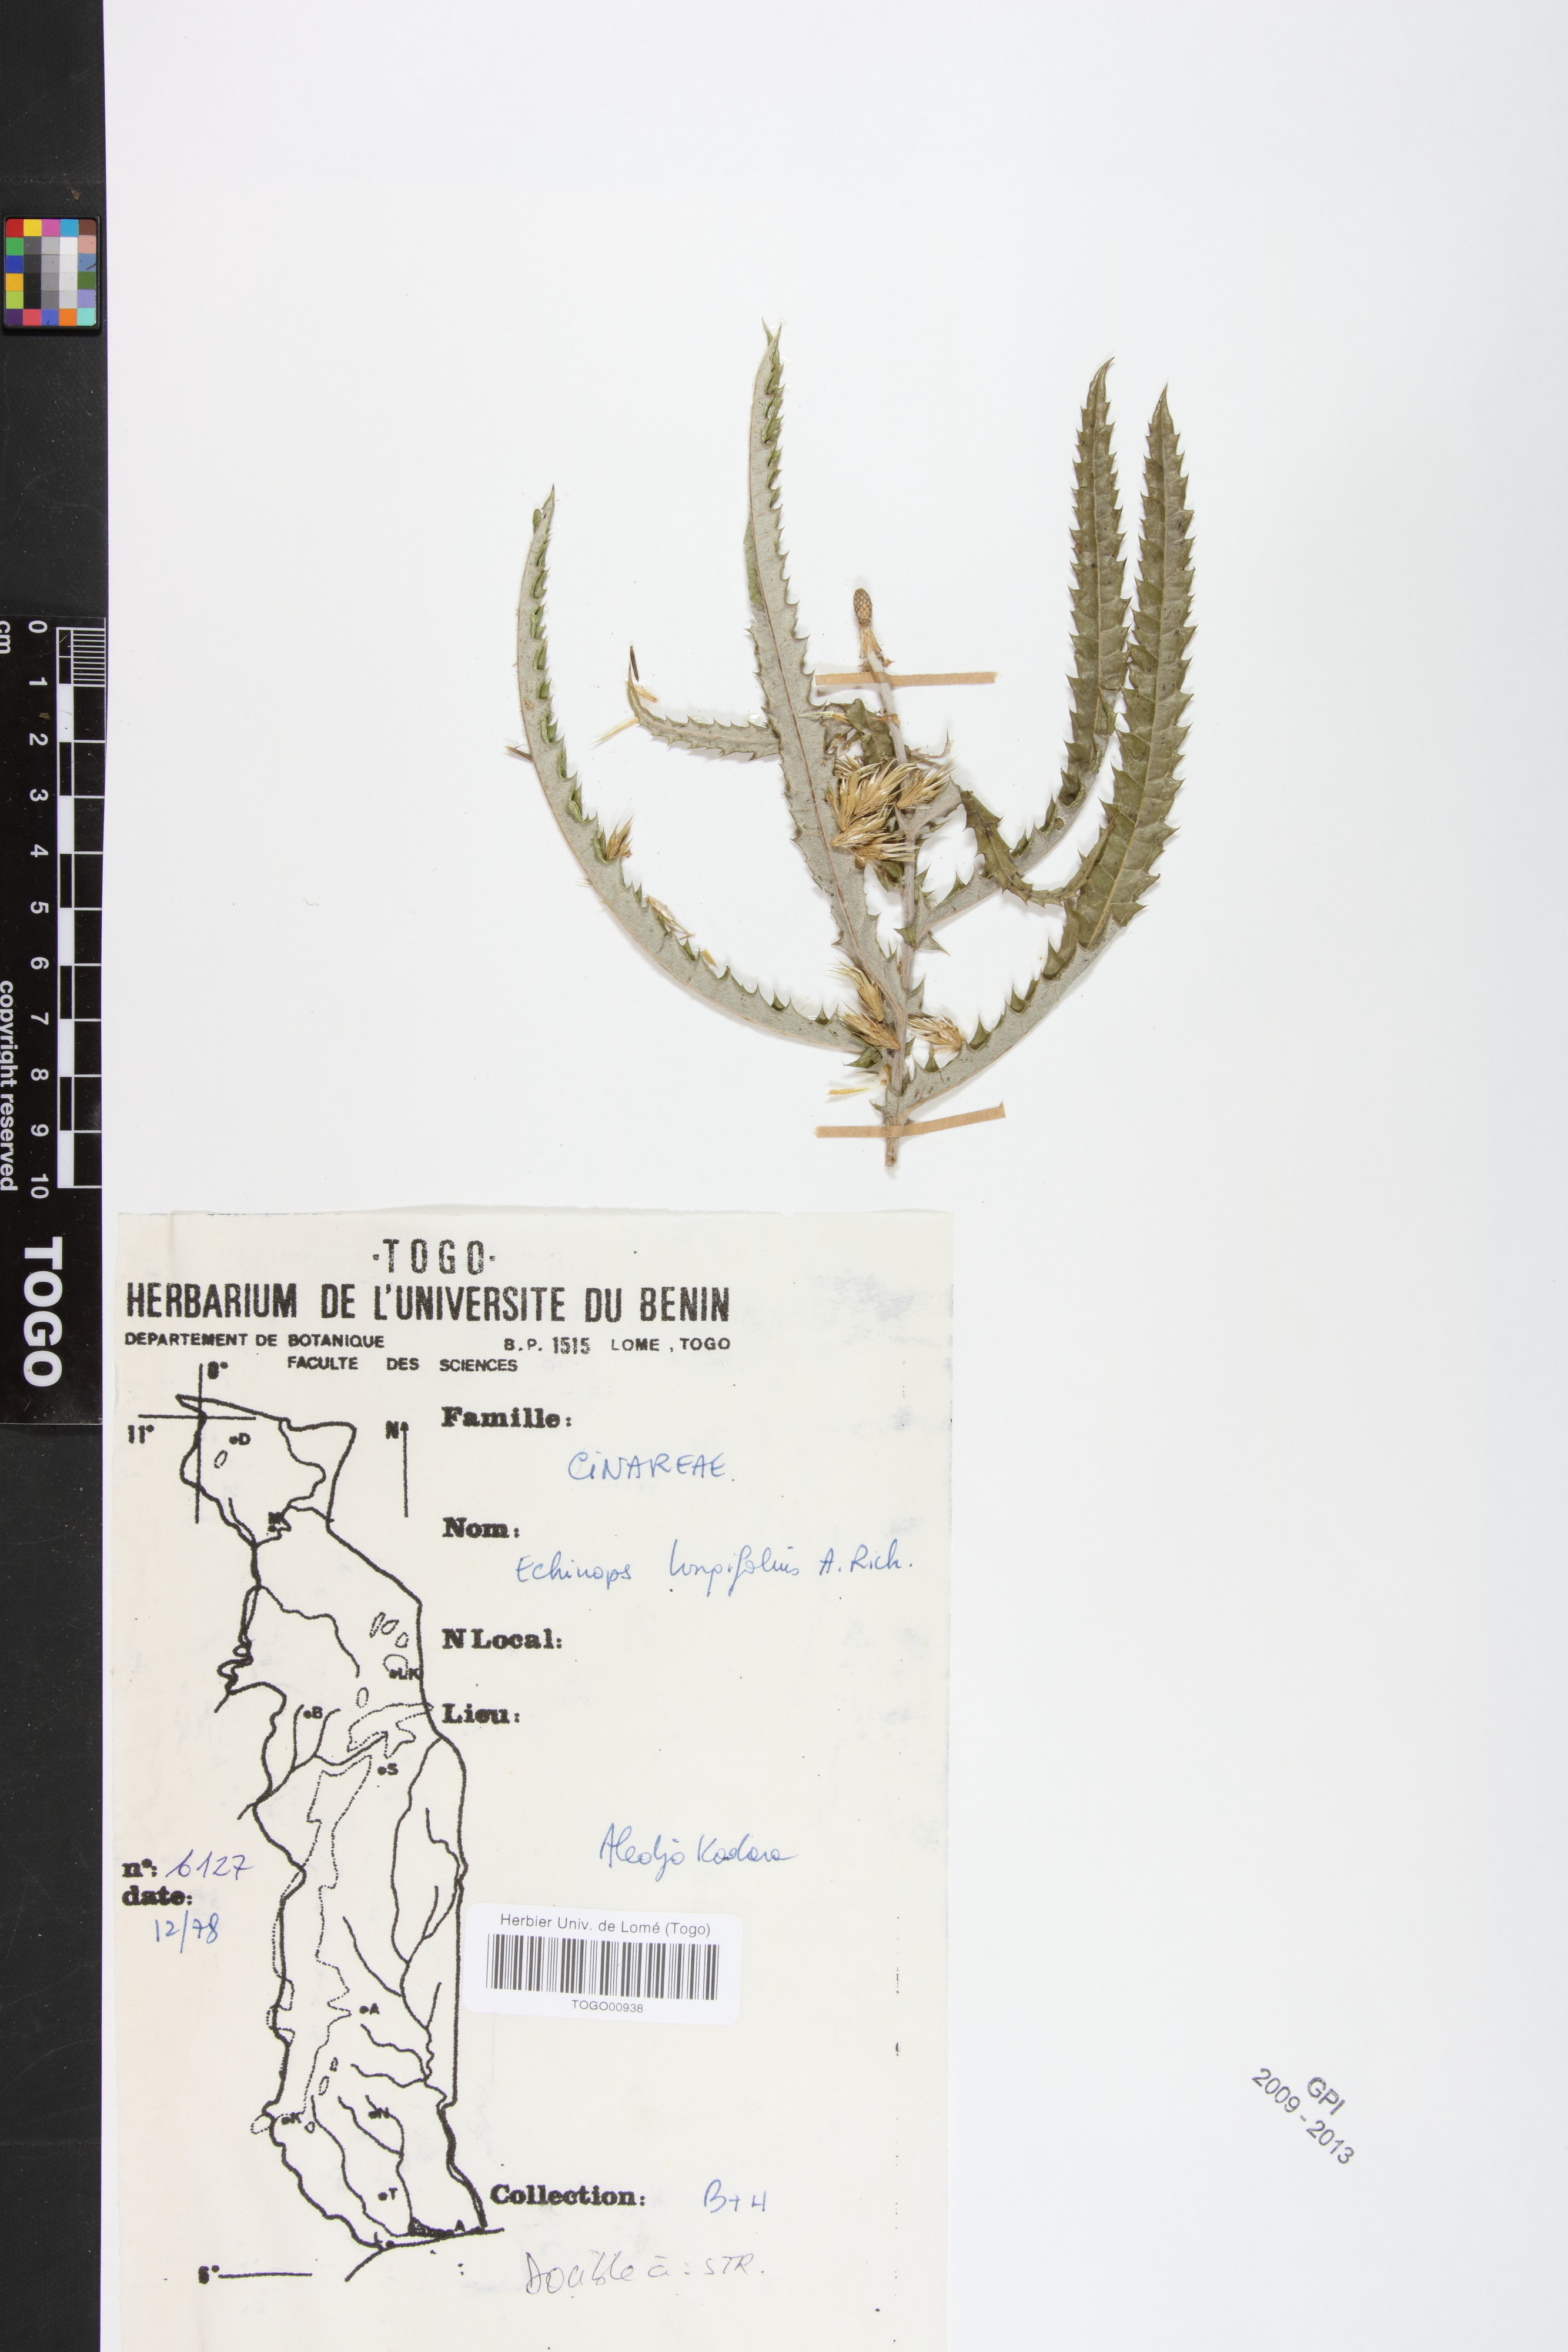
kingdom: Plantae
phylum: Tracheophyta
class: Magnoliopsida
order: Asterales
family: Asteraceae
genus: Echinops
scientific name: Echinops longifolius
